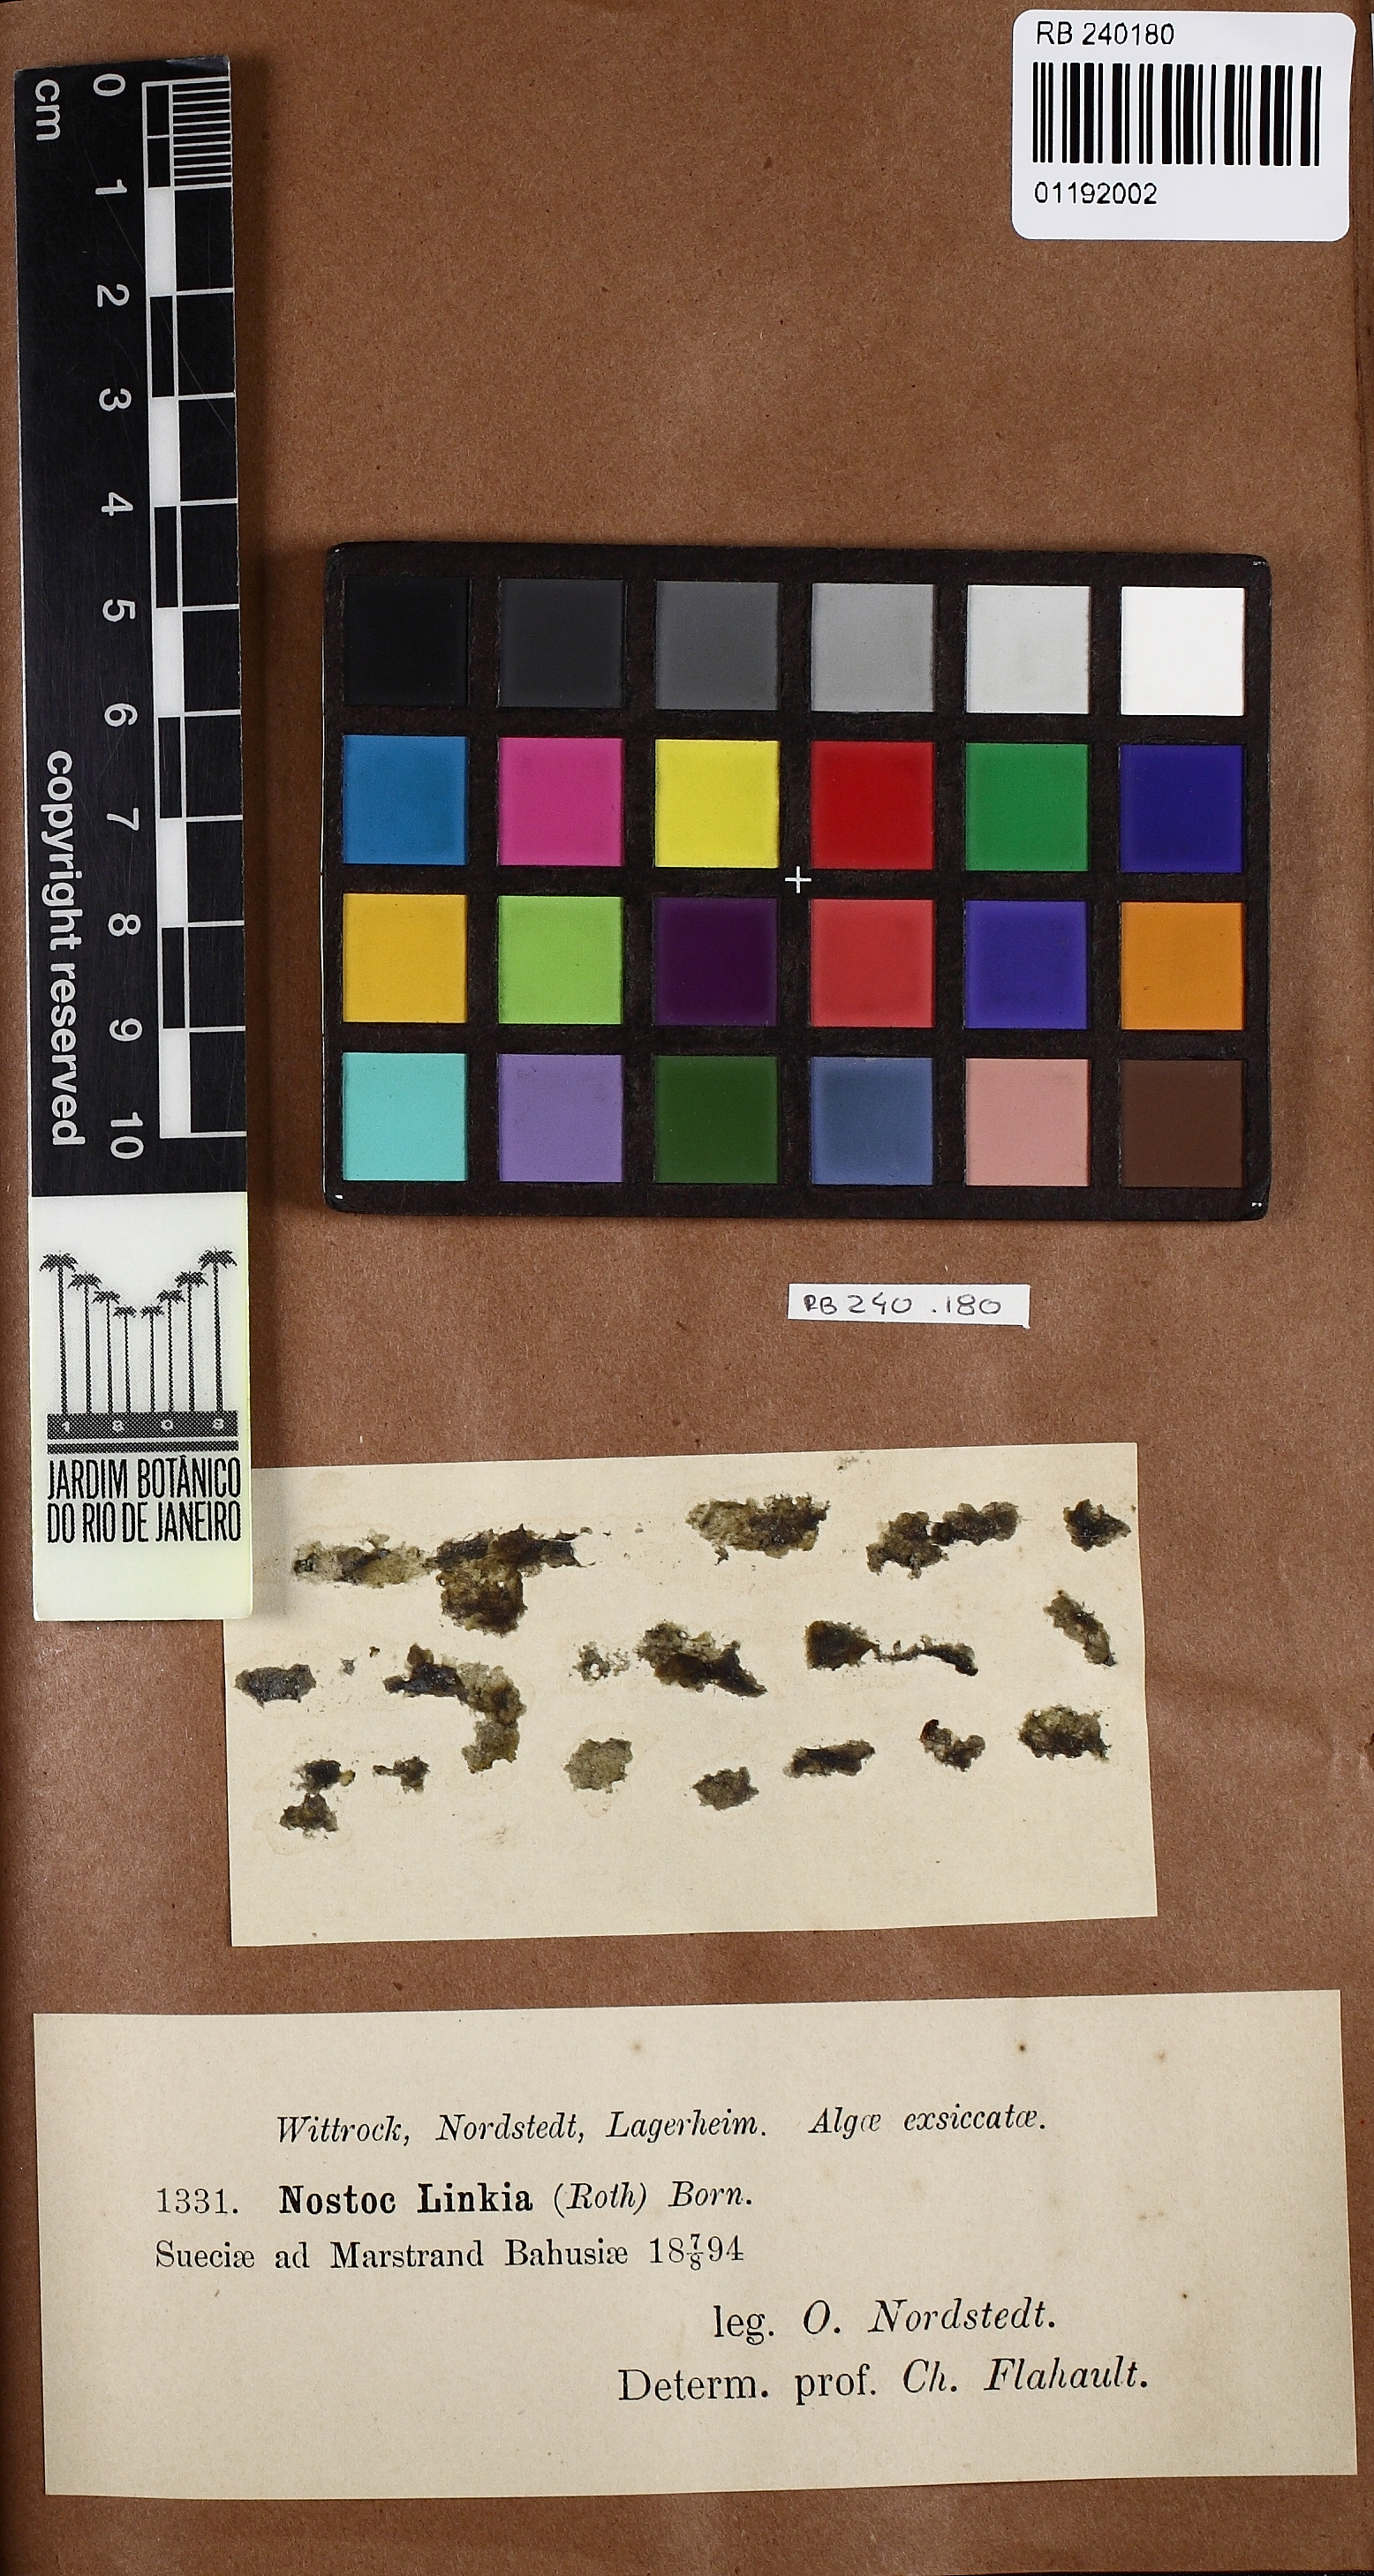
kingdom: Bacteria
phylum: Cyanobacteria
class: Cyanobacteriia
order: Cyanobacteriales
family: Nostocaceae
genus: Nostoc
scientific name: Nostoc
